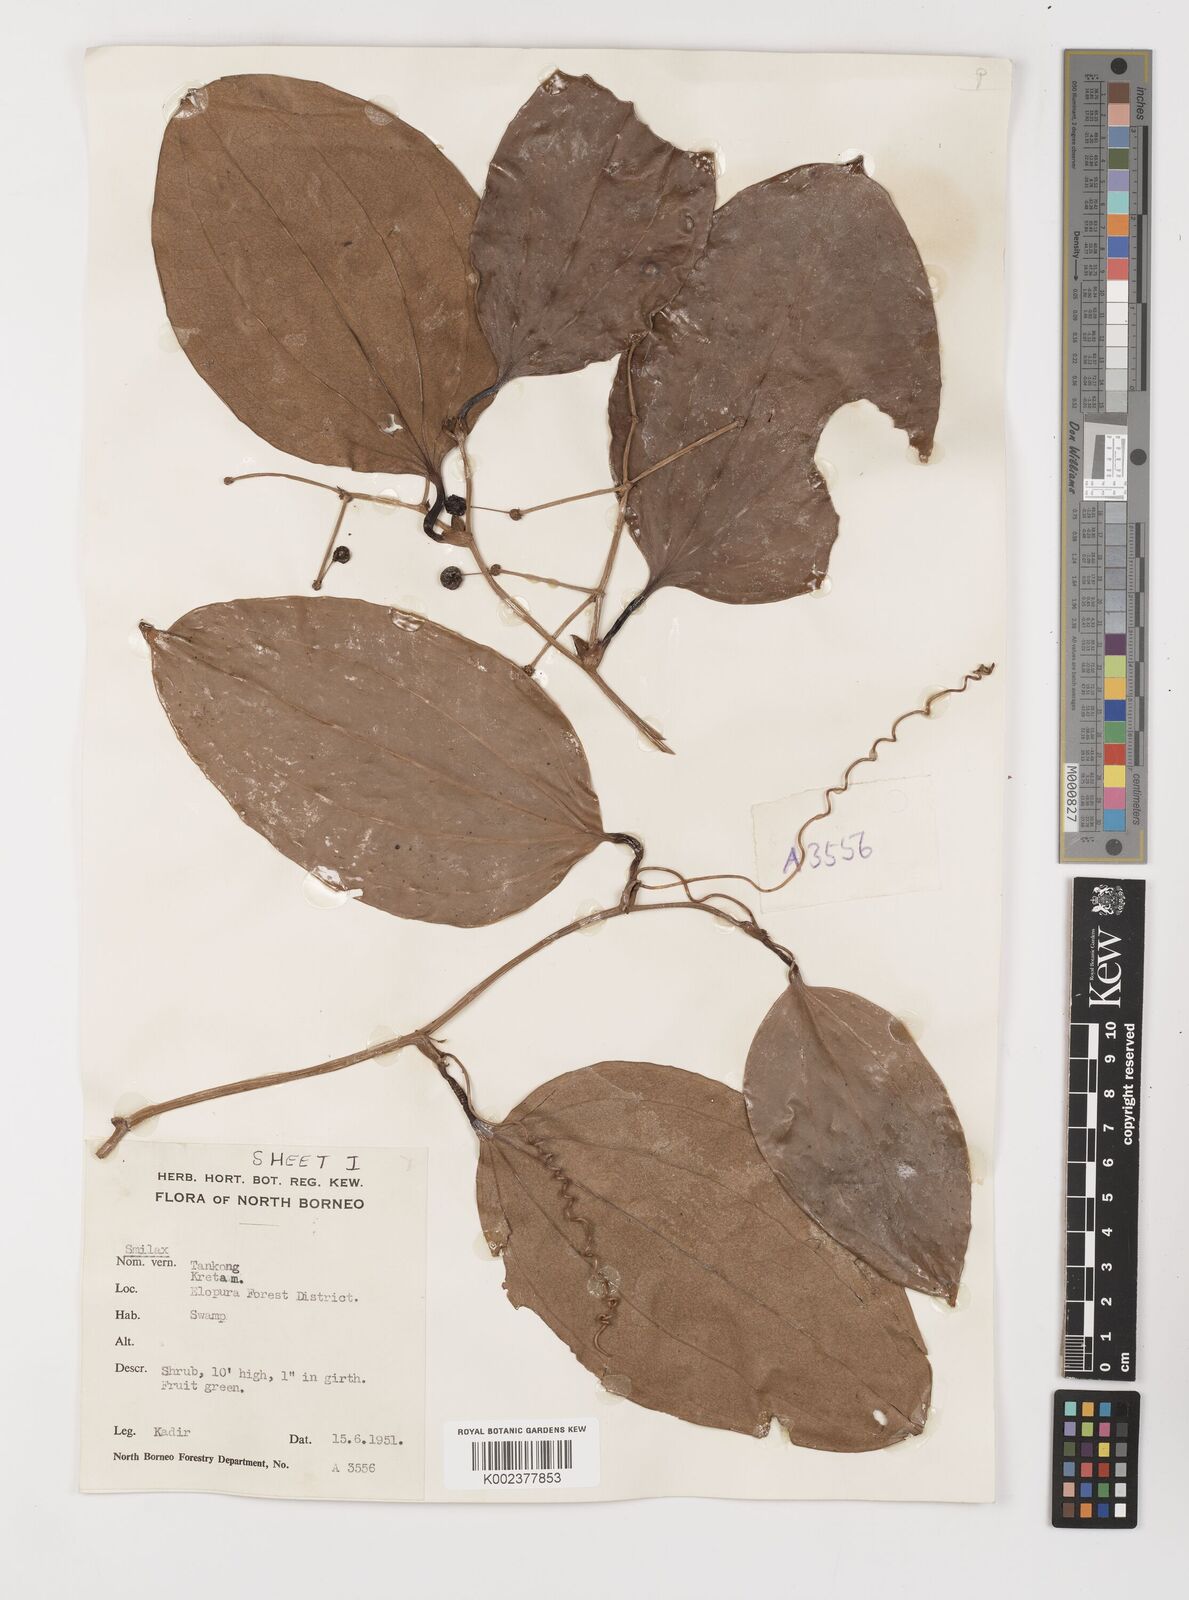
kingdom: Plantae
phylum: Tracheophyta
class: Liliopsida
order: Liliales
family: Smilacaceae
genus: Smilax
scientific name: Smilax
